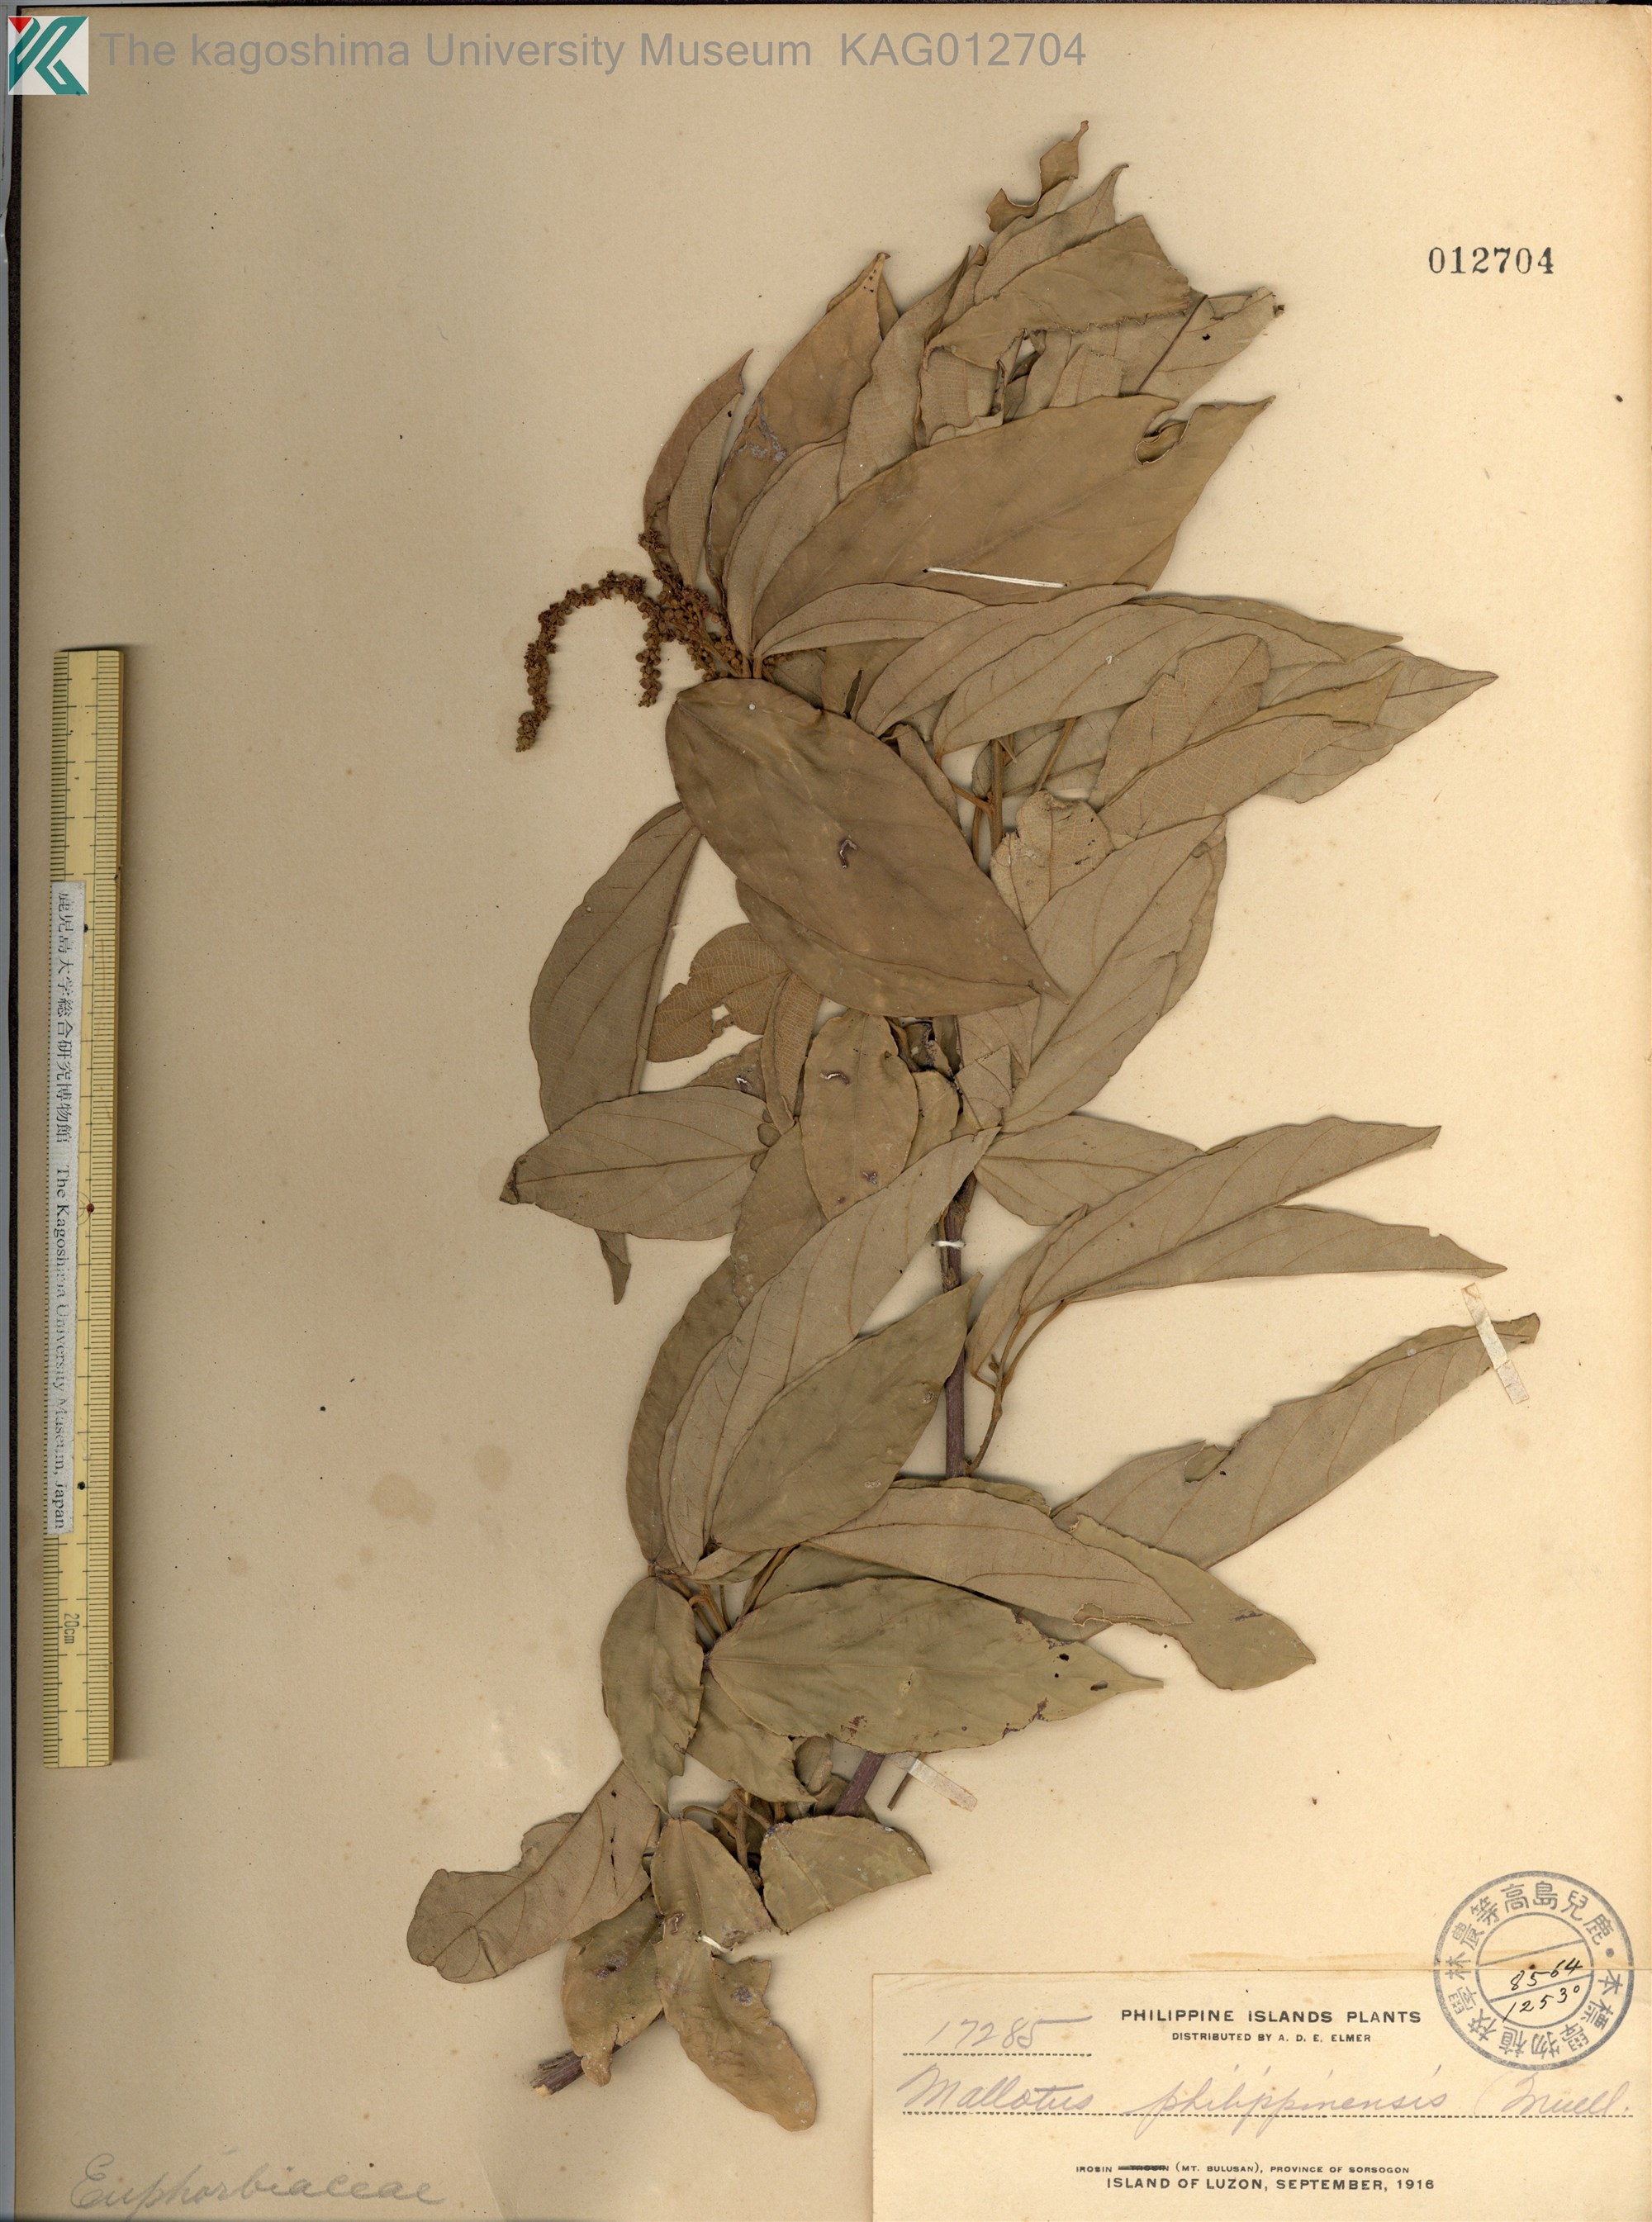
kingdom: Plantae
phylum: Tracheophyta
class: Magnoliopsida
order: Malpighiales
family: Euphorbiaceae
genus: Mallotus
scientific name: Mallotus philippensis
